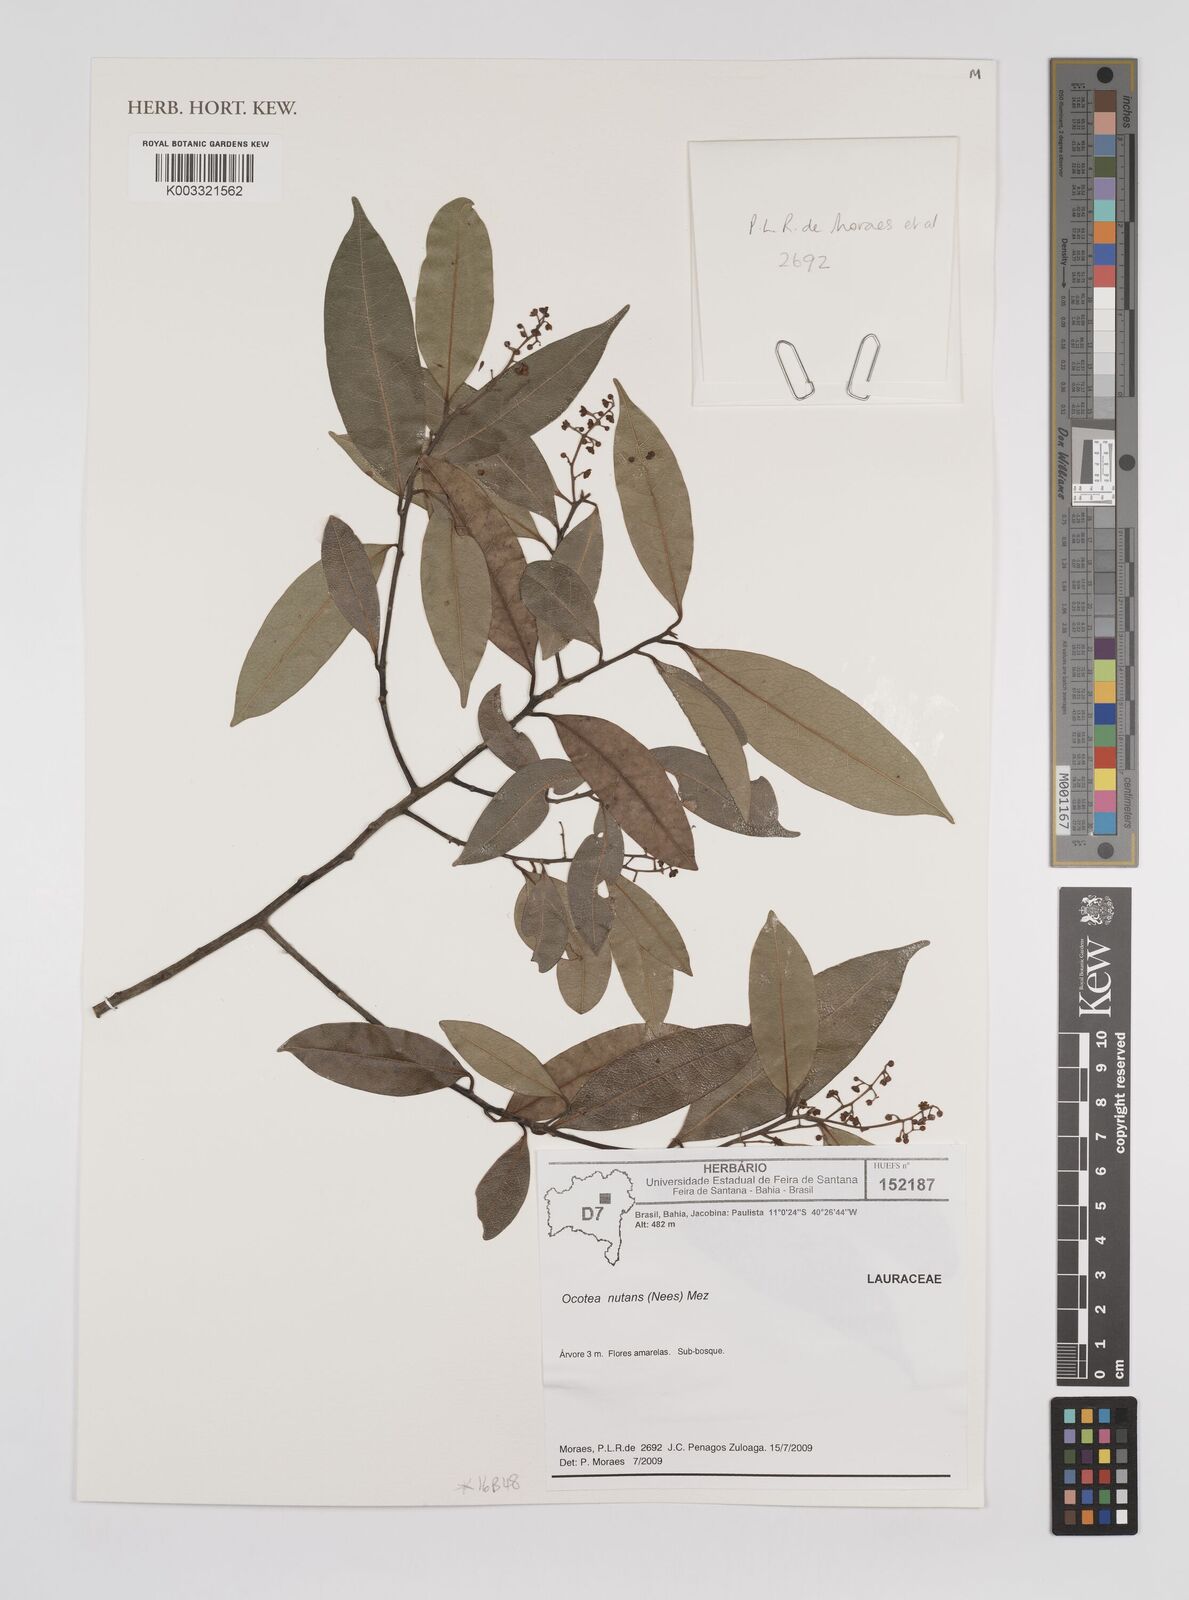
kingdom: Plantae
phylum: Tracheophyta
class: Magnoliopsida
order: Laurales
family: Lauraceae
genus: Mespilodaphne
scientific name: Mespilodaphne nutans
